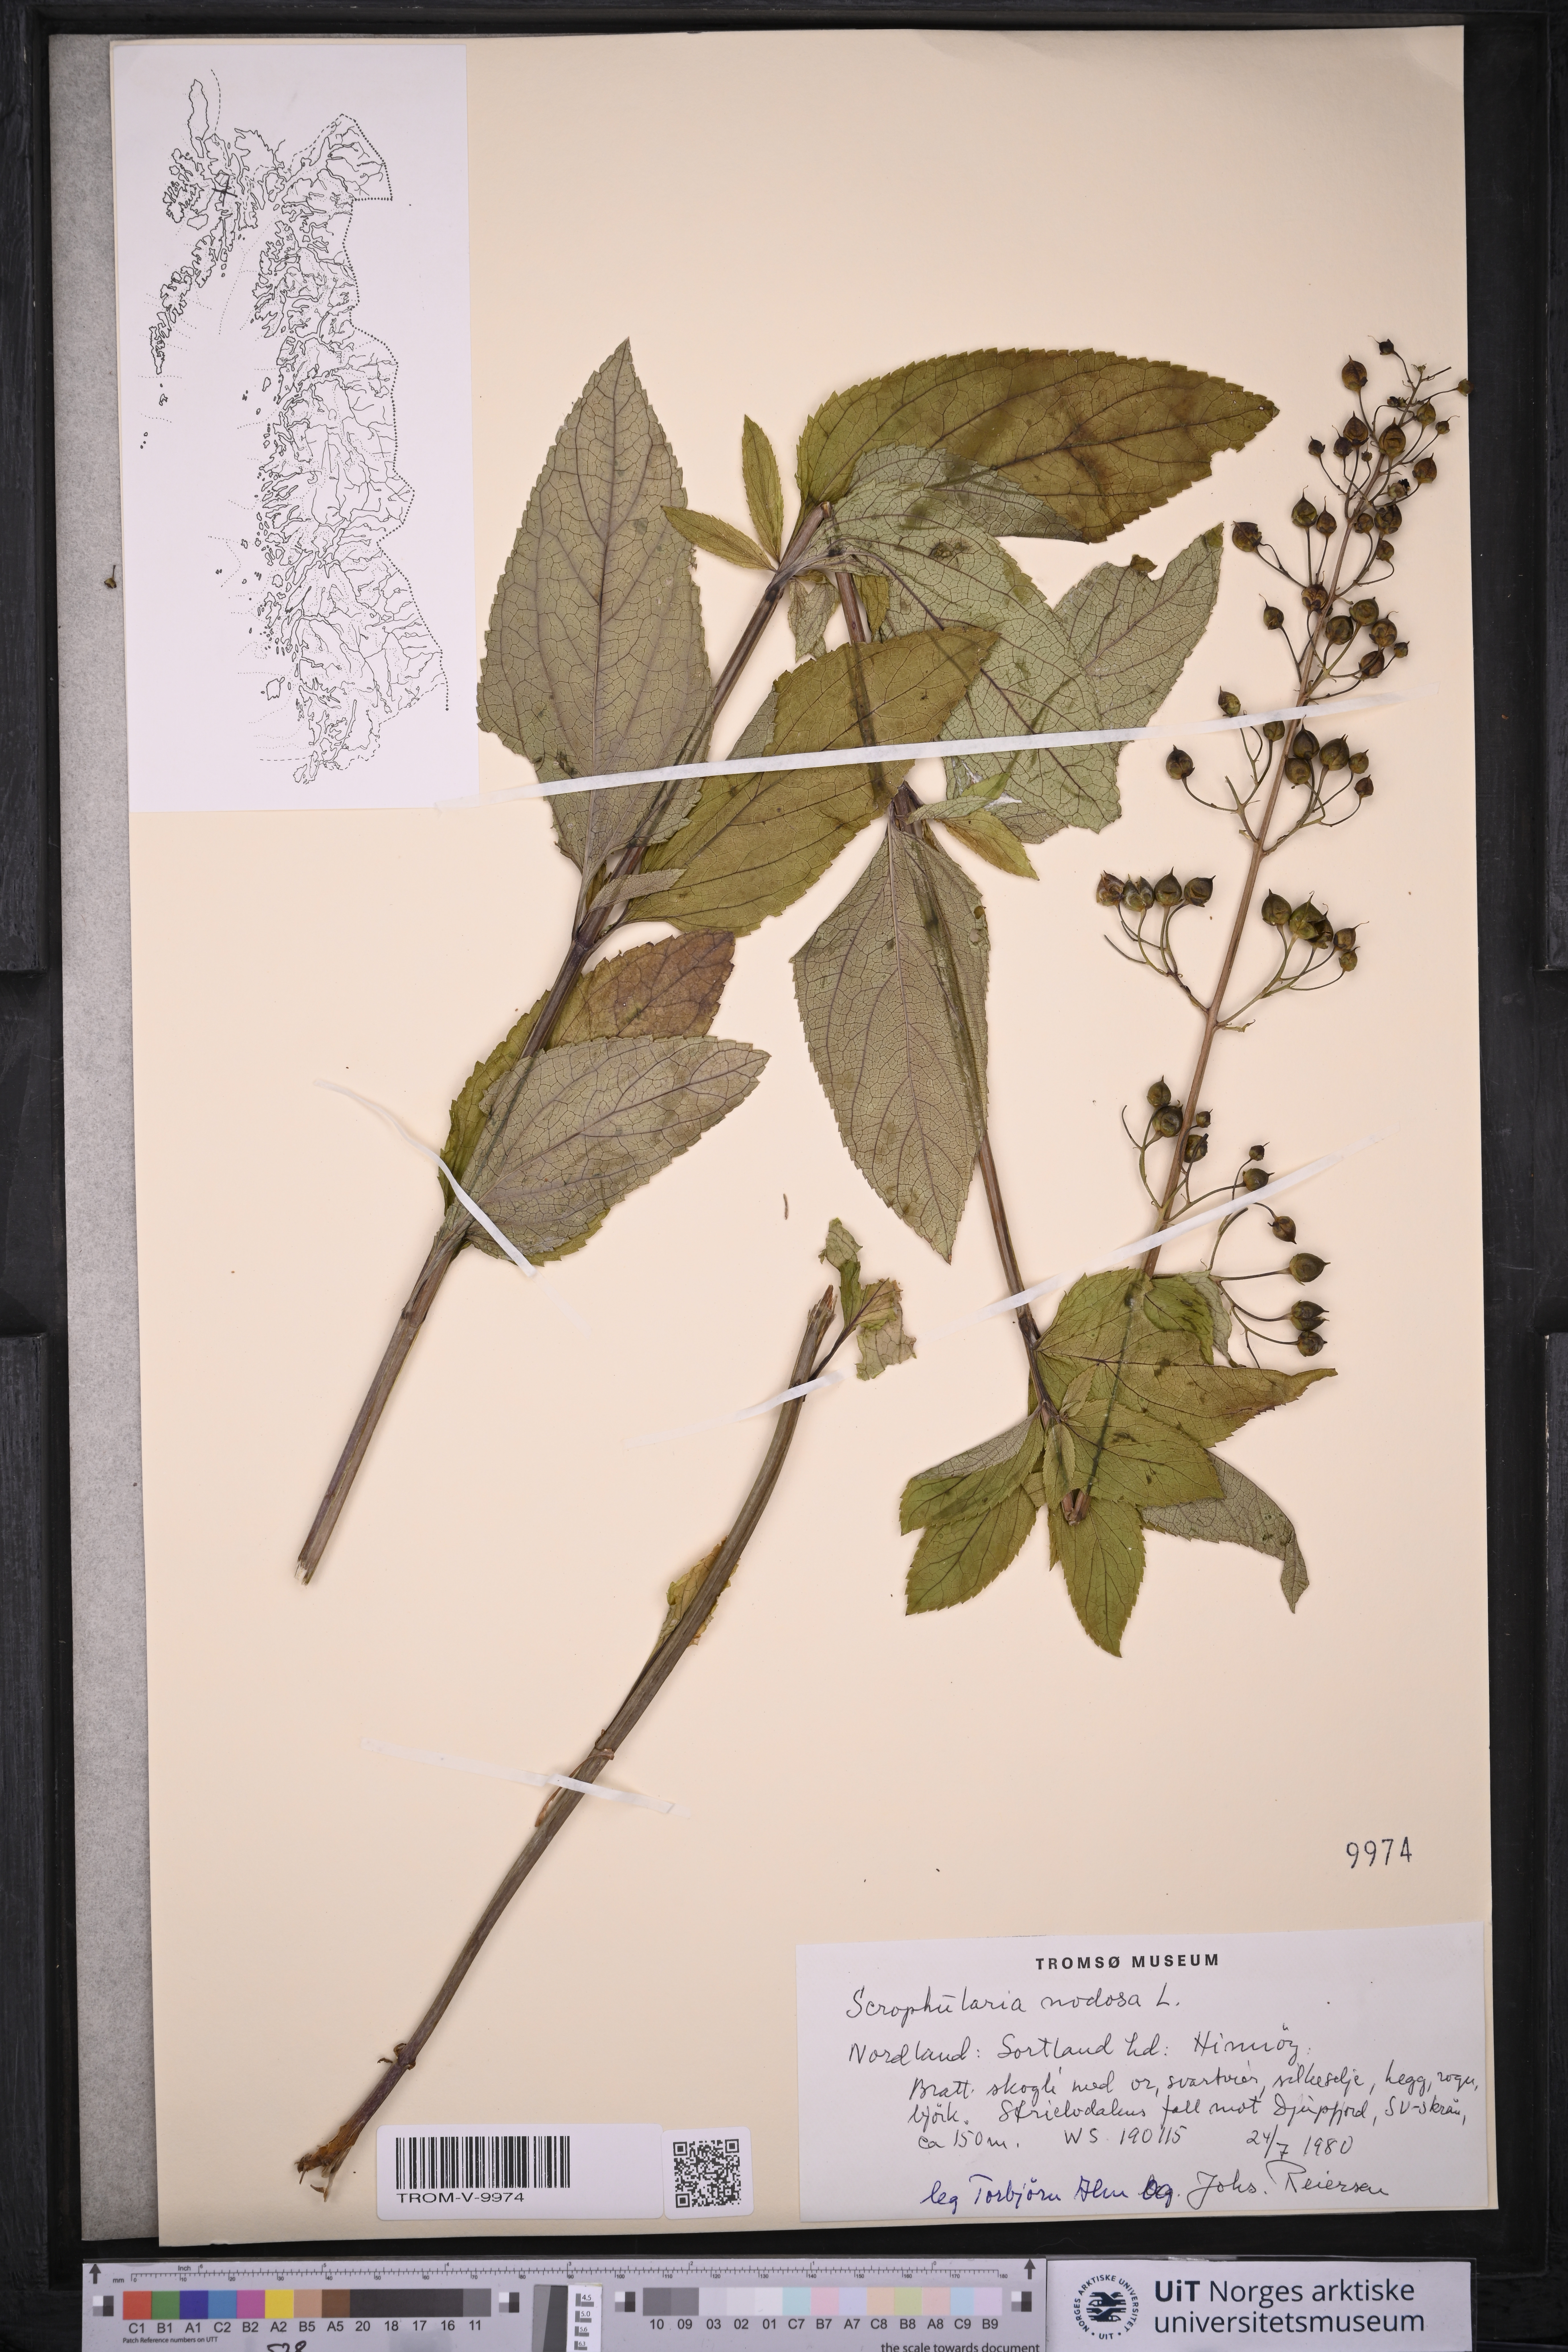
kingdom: Plantae
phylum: Tracheophyta
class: Magnoliopsida
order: Lamiales
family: Scrophulariaceae
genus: Scrophularia
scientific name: Scrophularia nodosa
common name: Common figwort
